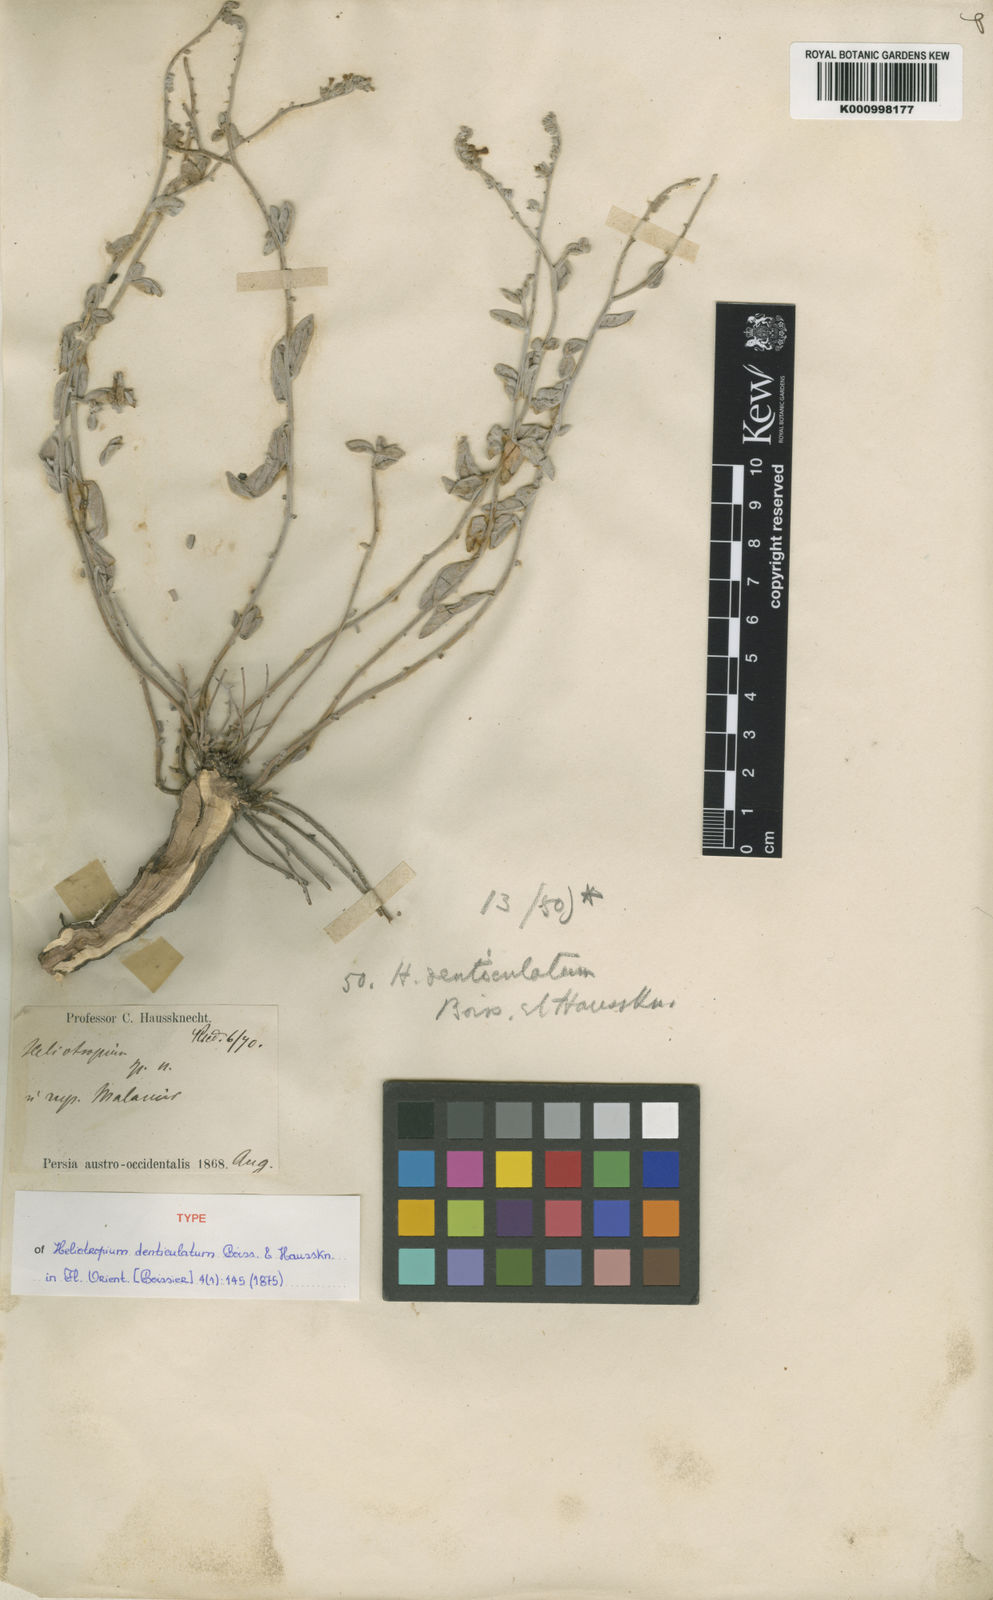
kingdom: Plantae
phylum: Tracheophyta
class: Magnoliopsida
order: Boraginales
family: Heliotropiaceae
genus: Heliotropium
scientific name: Heliotropium denticulatum
